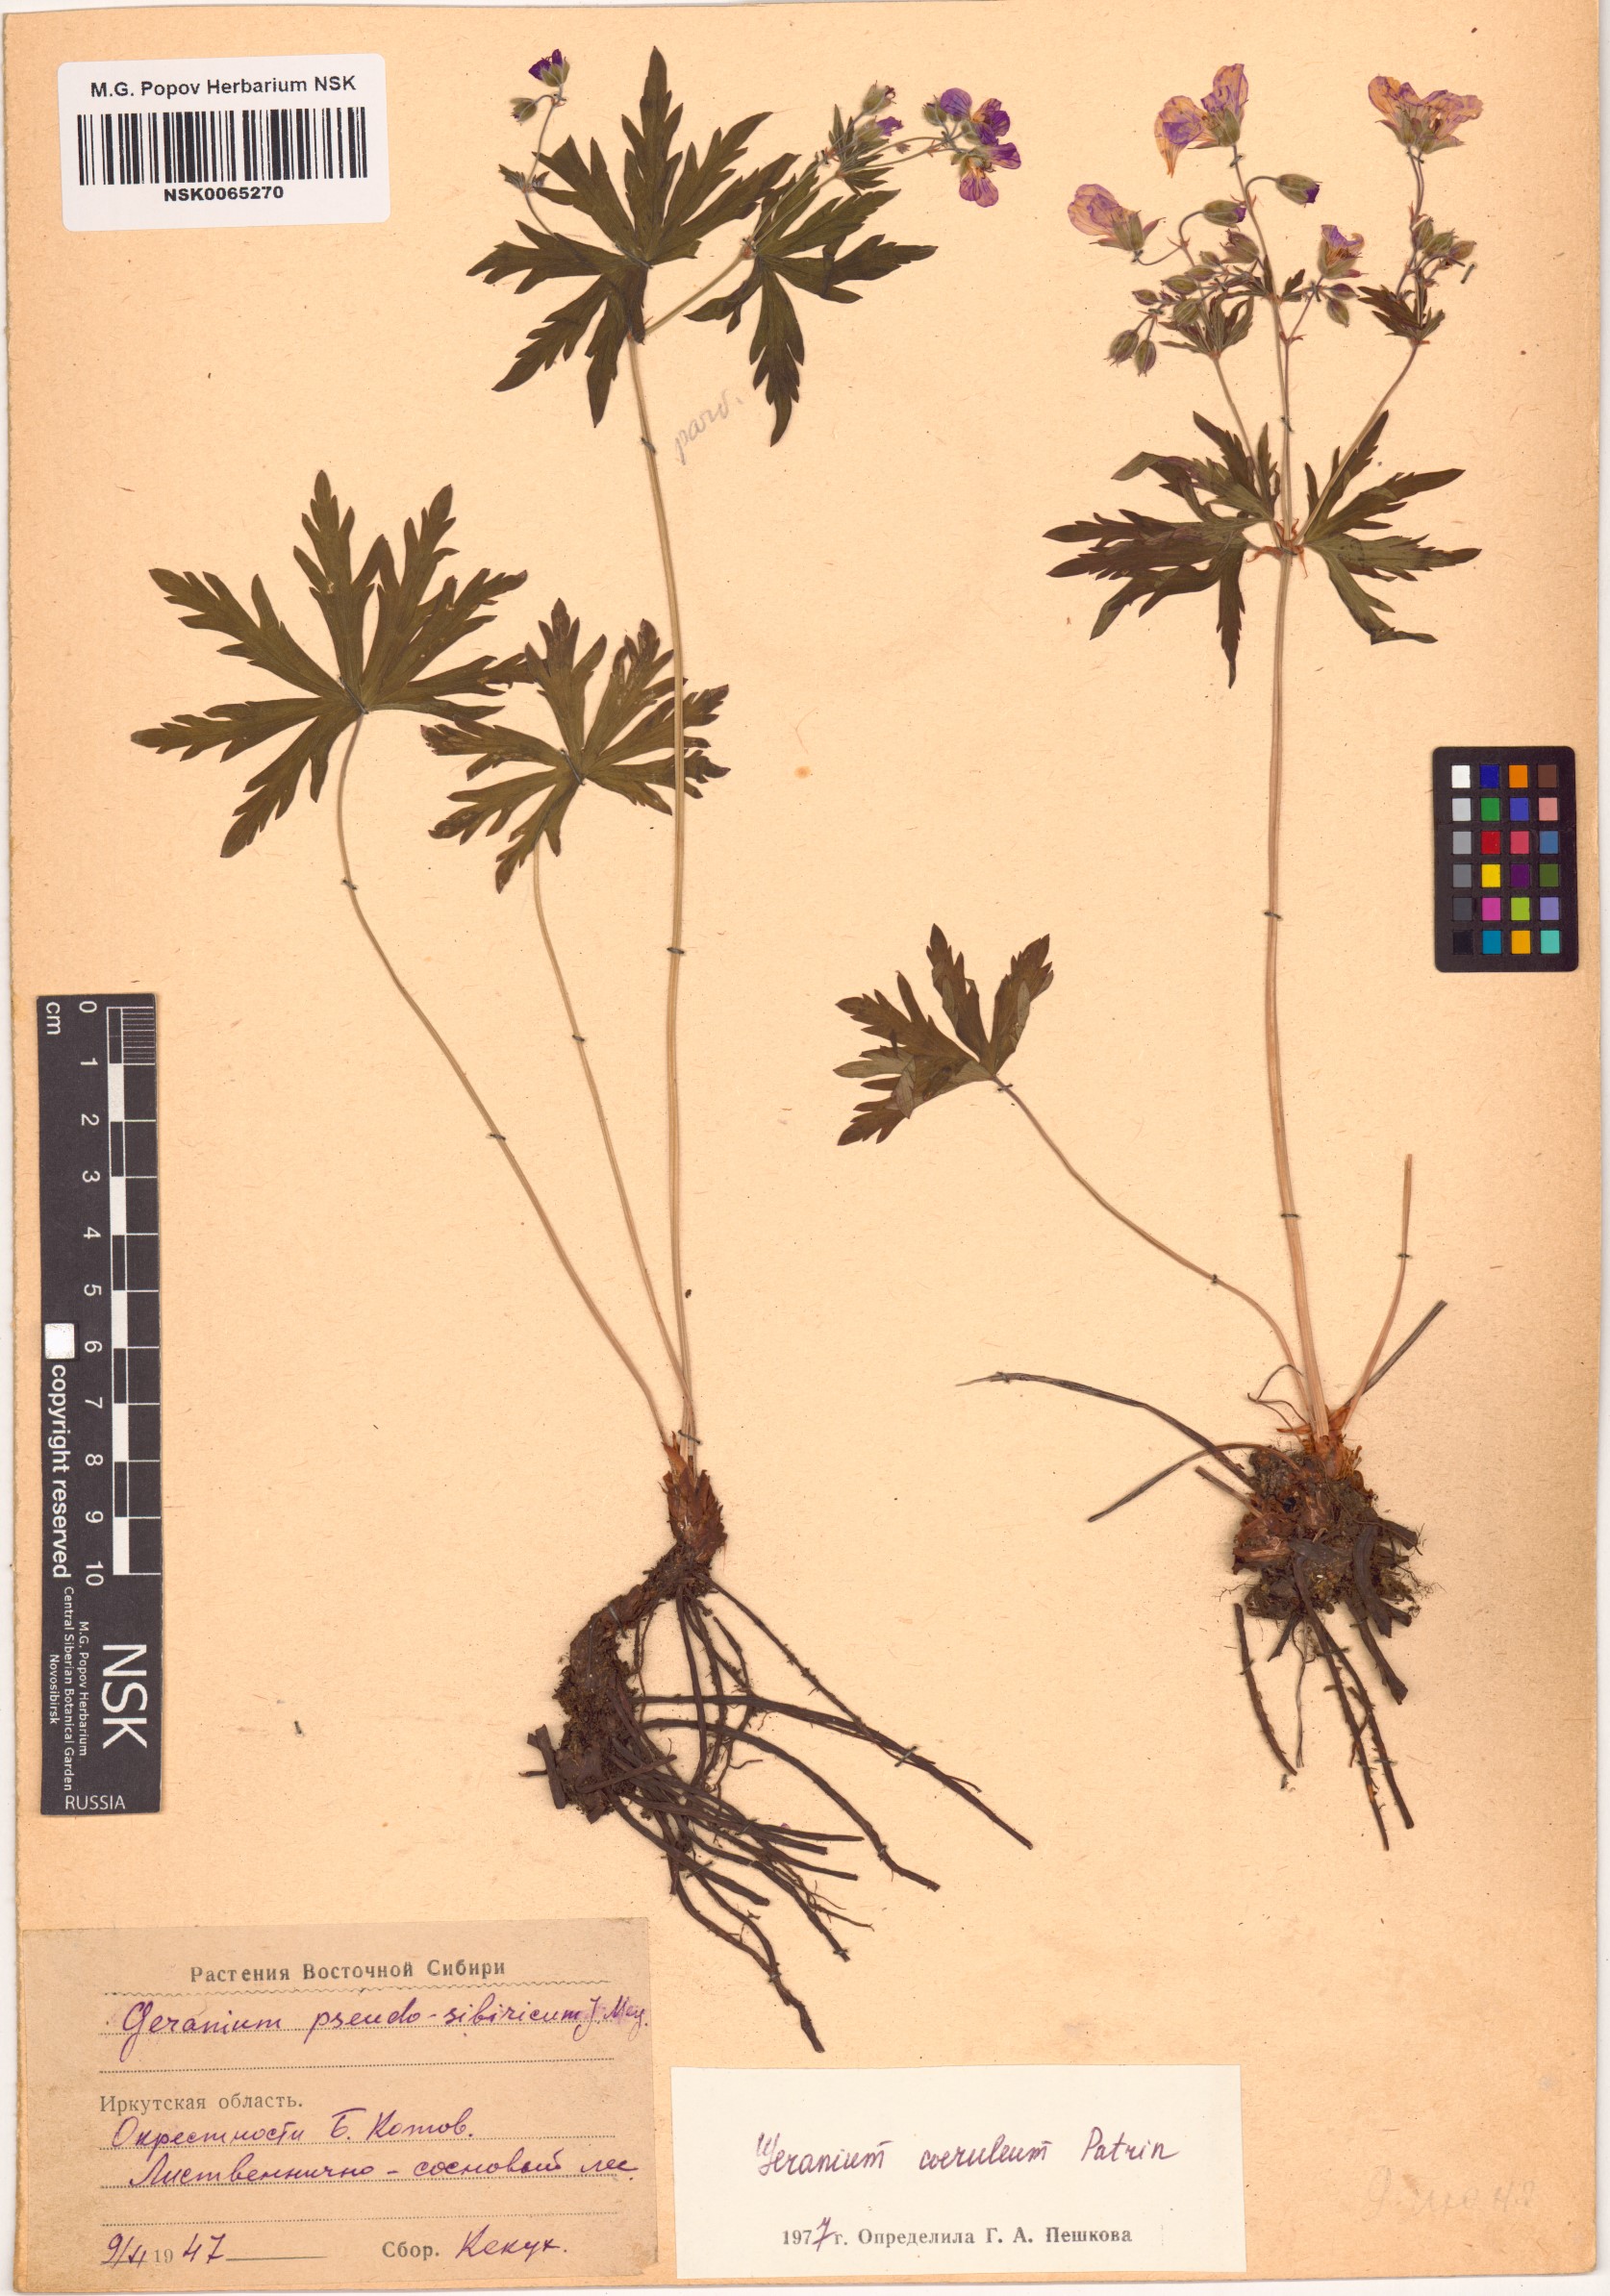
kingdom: Plantae
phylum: Tracheophyta
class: Magnoliopsida
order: Geraniales
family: Geraniaceae
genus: Geranium
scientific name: Geranium pseudosibiricum
